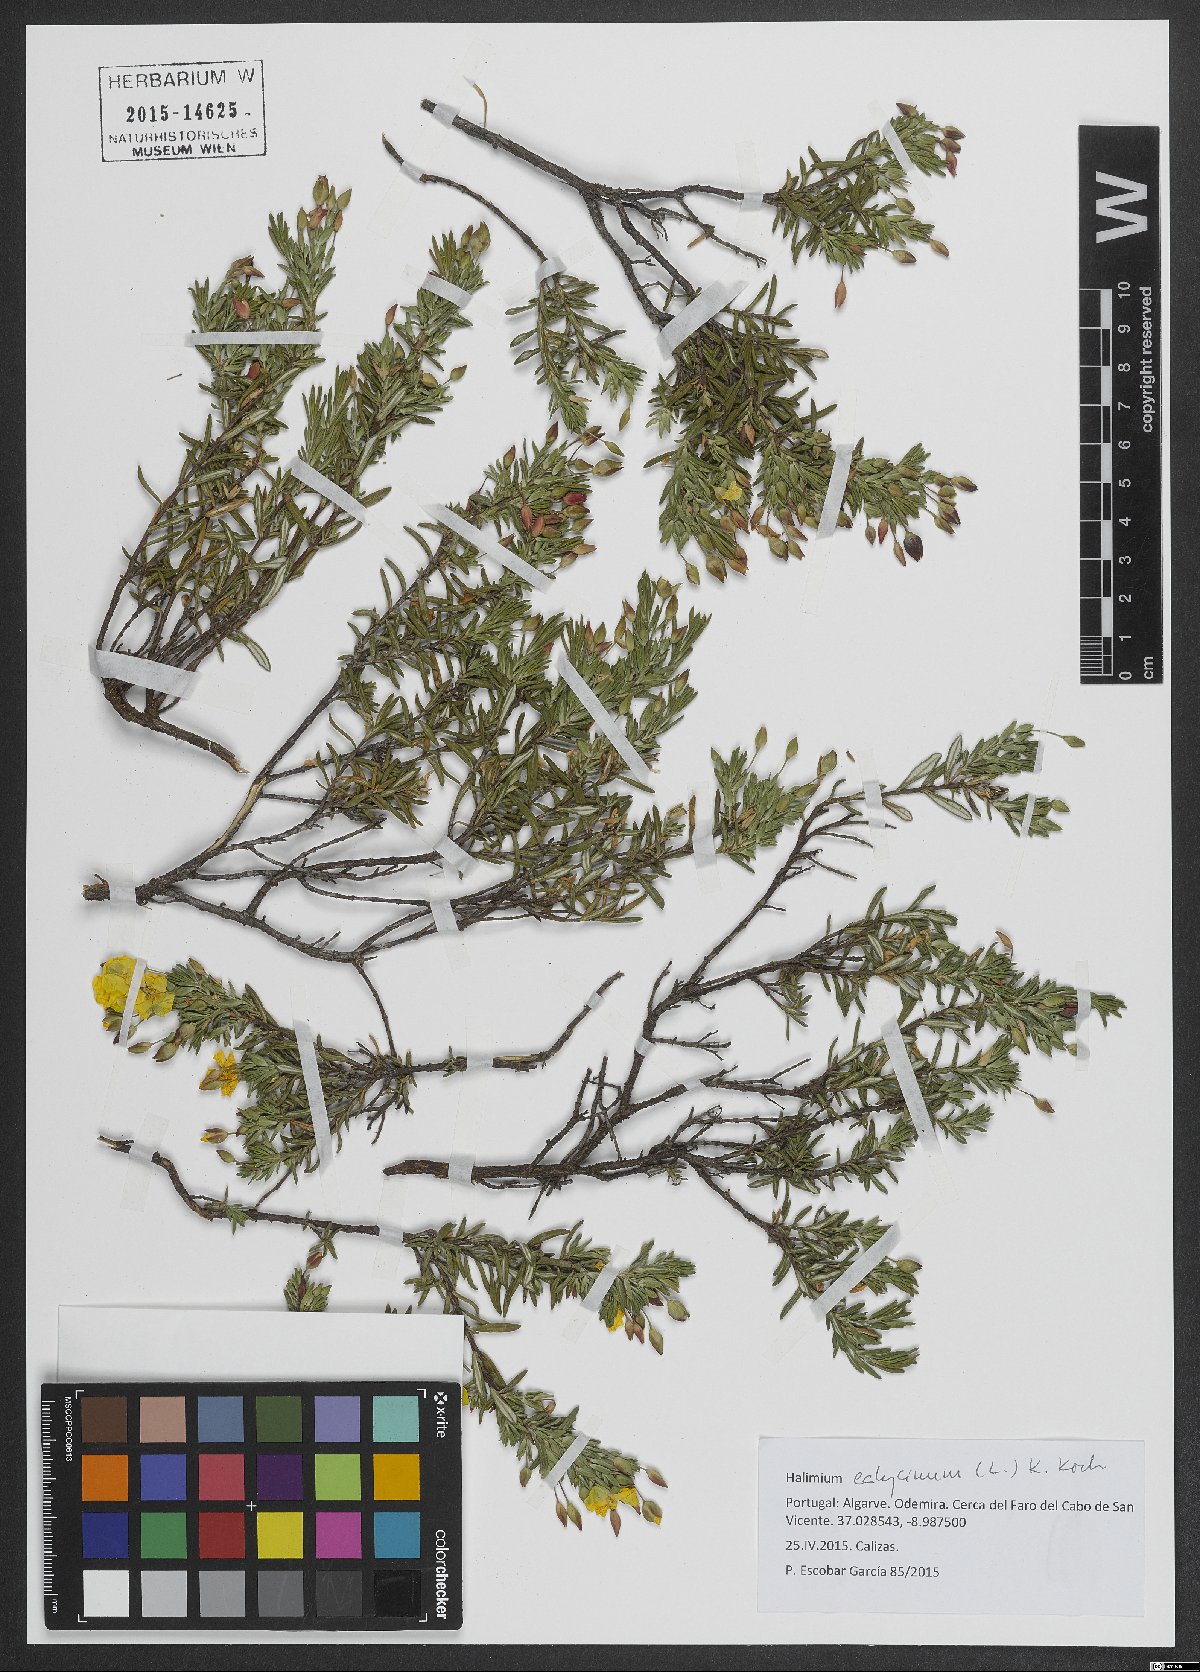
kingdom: Plantae
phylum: Tracheophyta
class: Magnoliopsida
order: Malvales
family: Cistaceae
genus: Halimium
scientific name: Halimium calycinum
